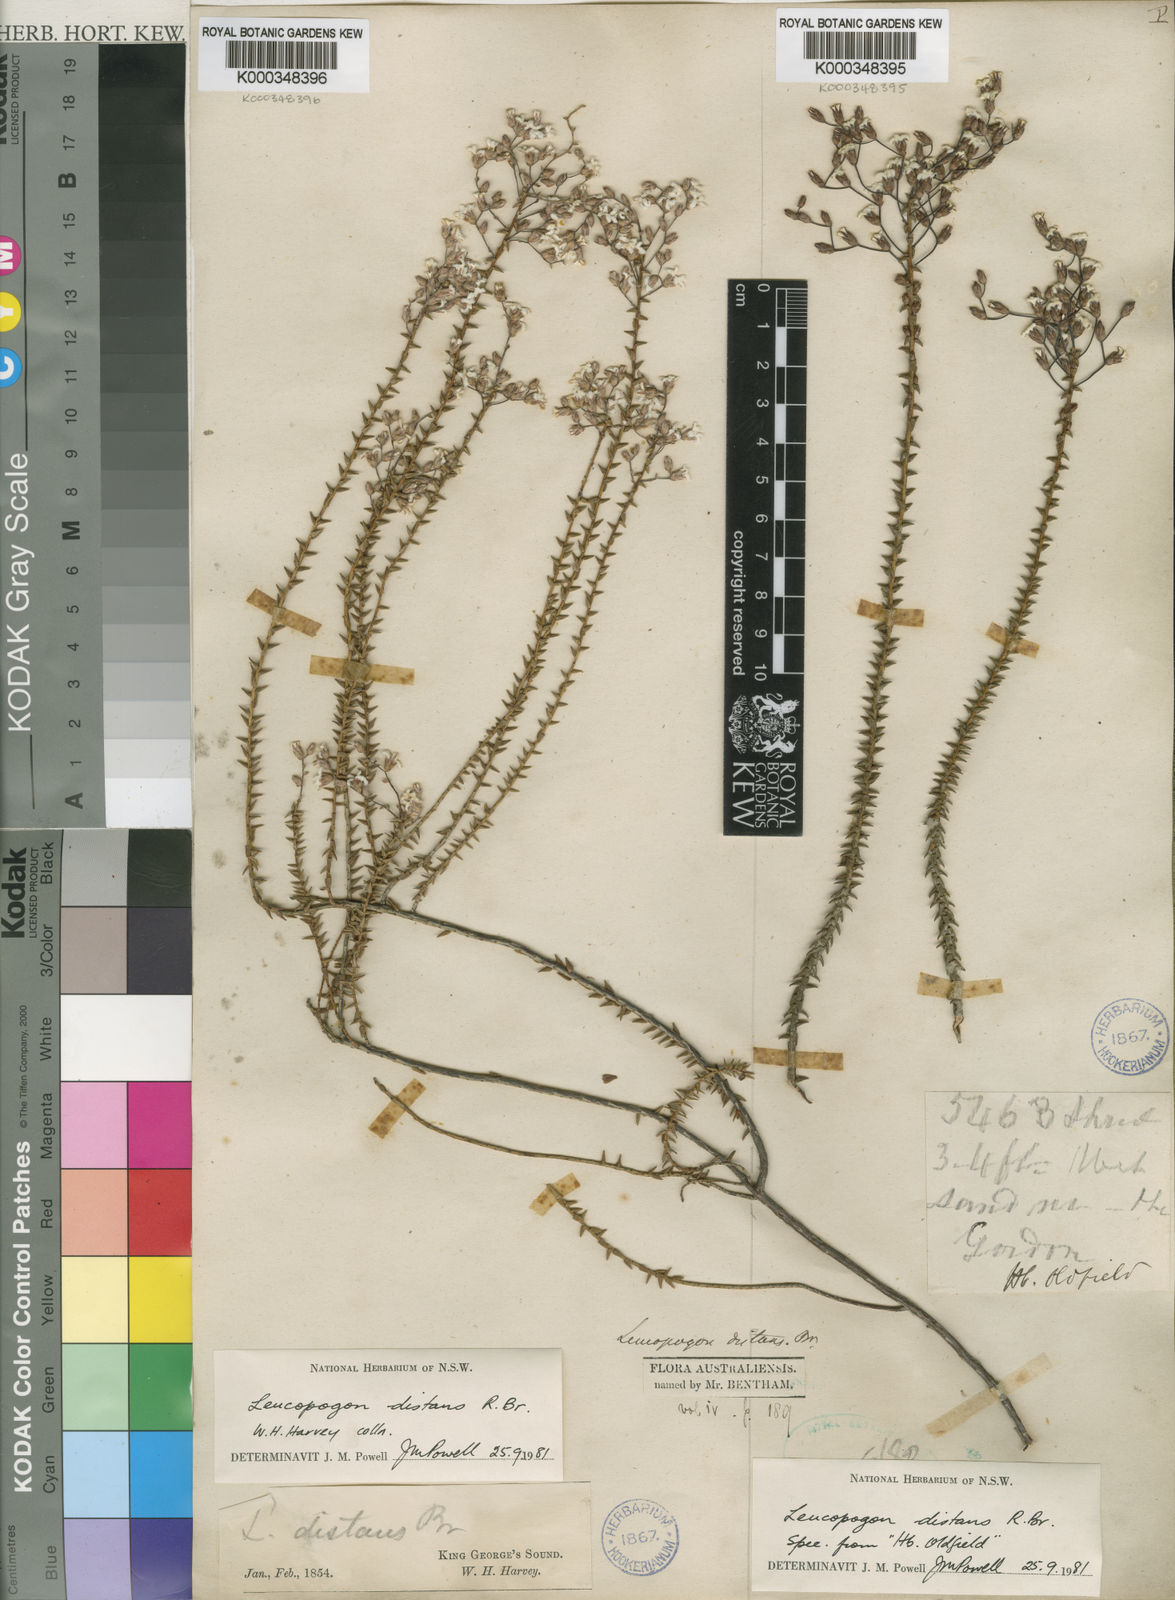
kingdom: Plantae
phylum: Tracheophyta
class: Magnoliopsida
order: Ericales
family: Ericaceae
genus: Leucopogon
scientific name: Leucopogon distans
